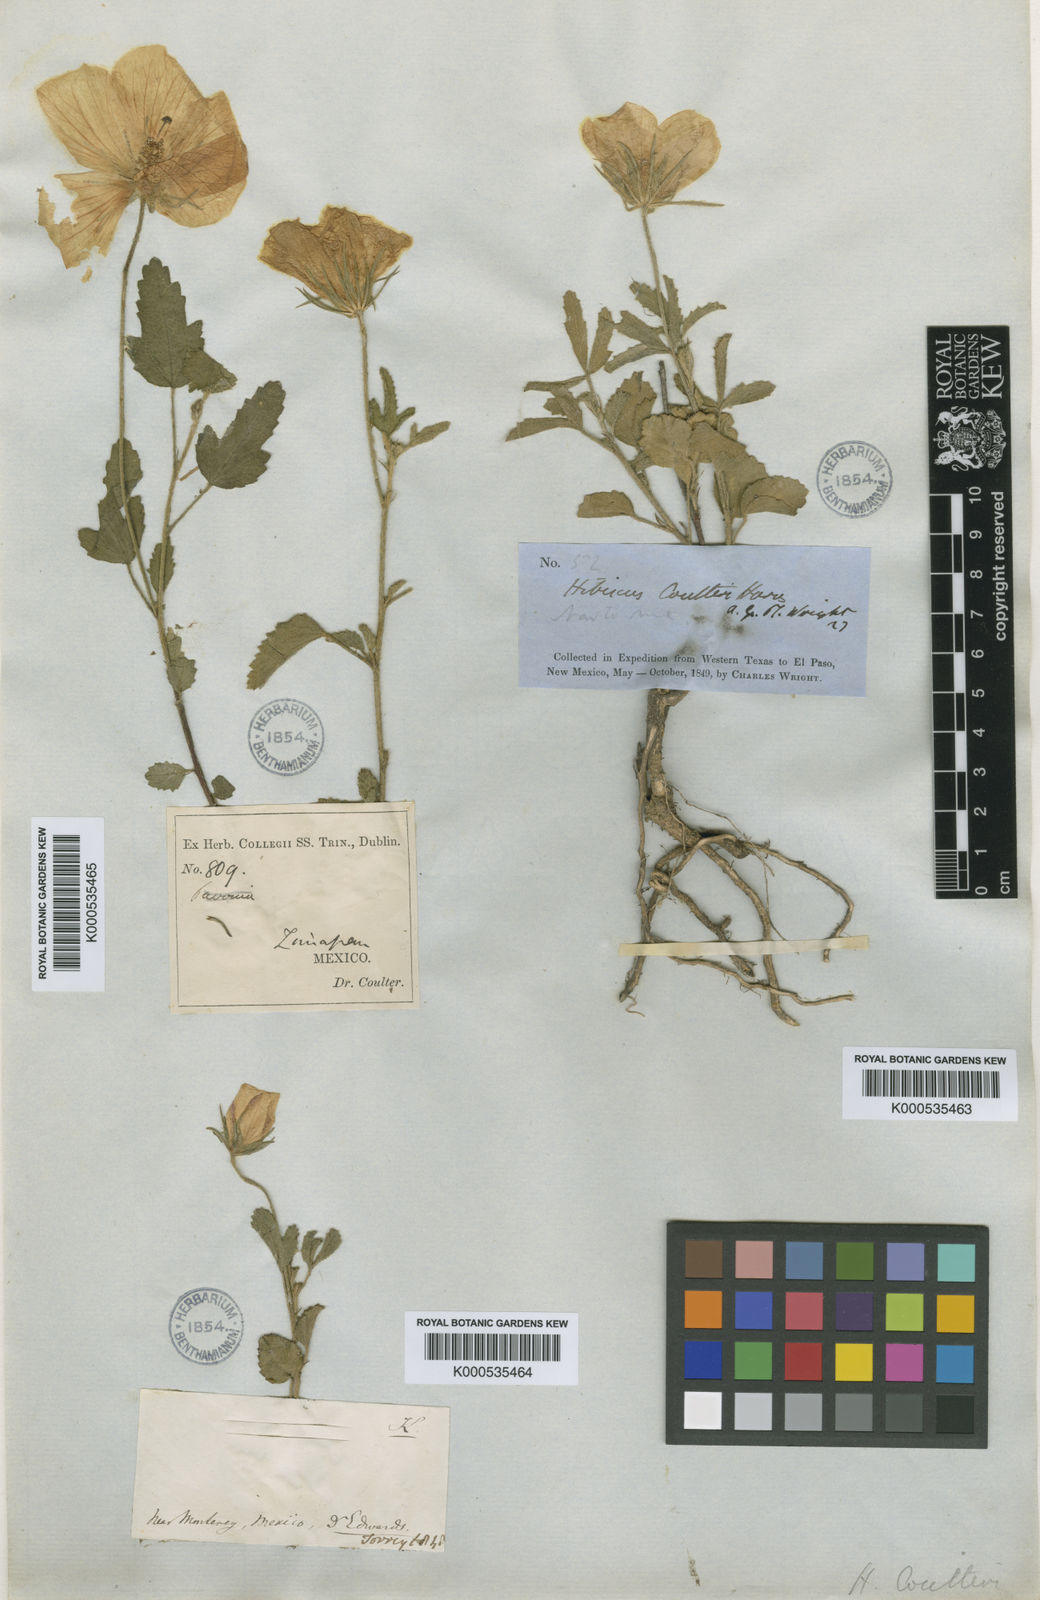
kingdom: Plantae
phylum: Tracheophyta
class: Magnoliopsida
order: Malvales
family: Malvaceae
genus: Hibiscus
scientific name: Hibiscus coulteri
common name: Desert rose-mallow
